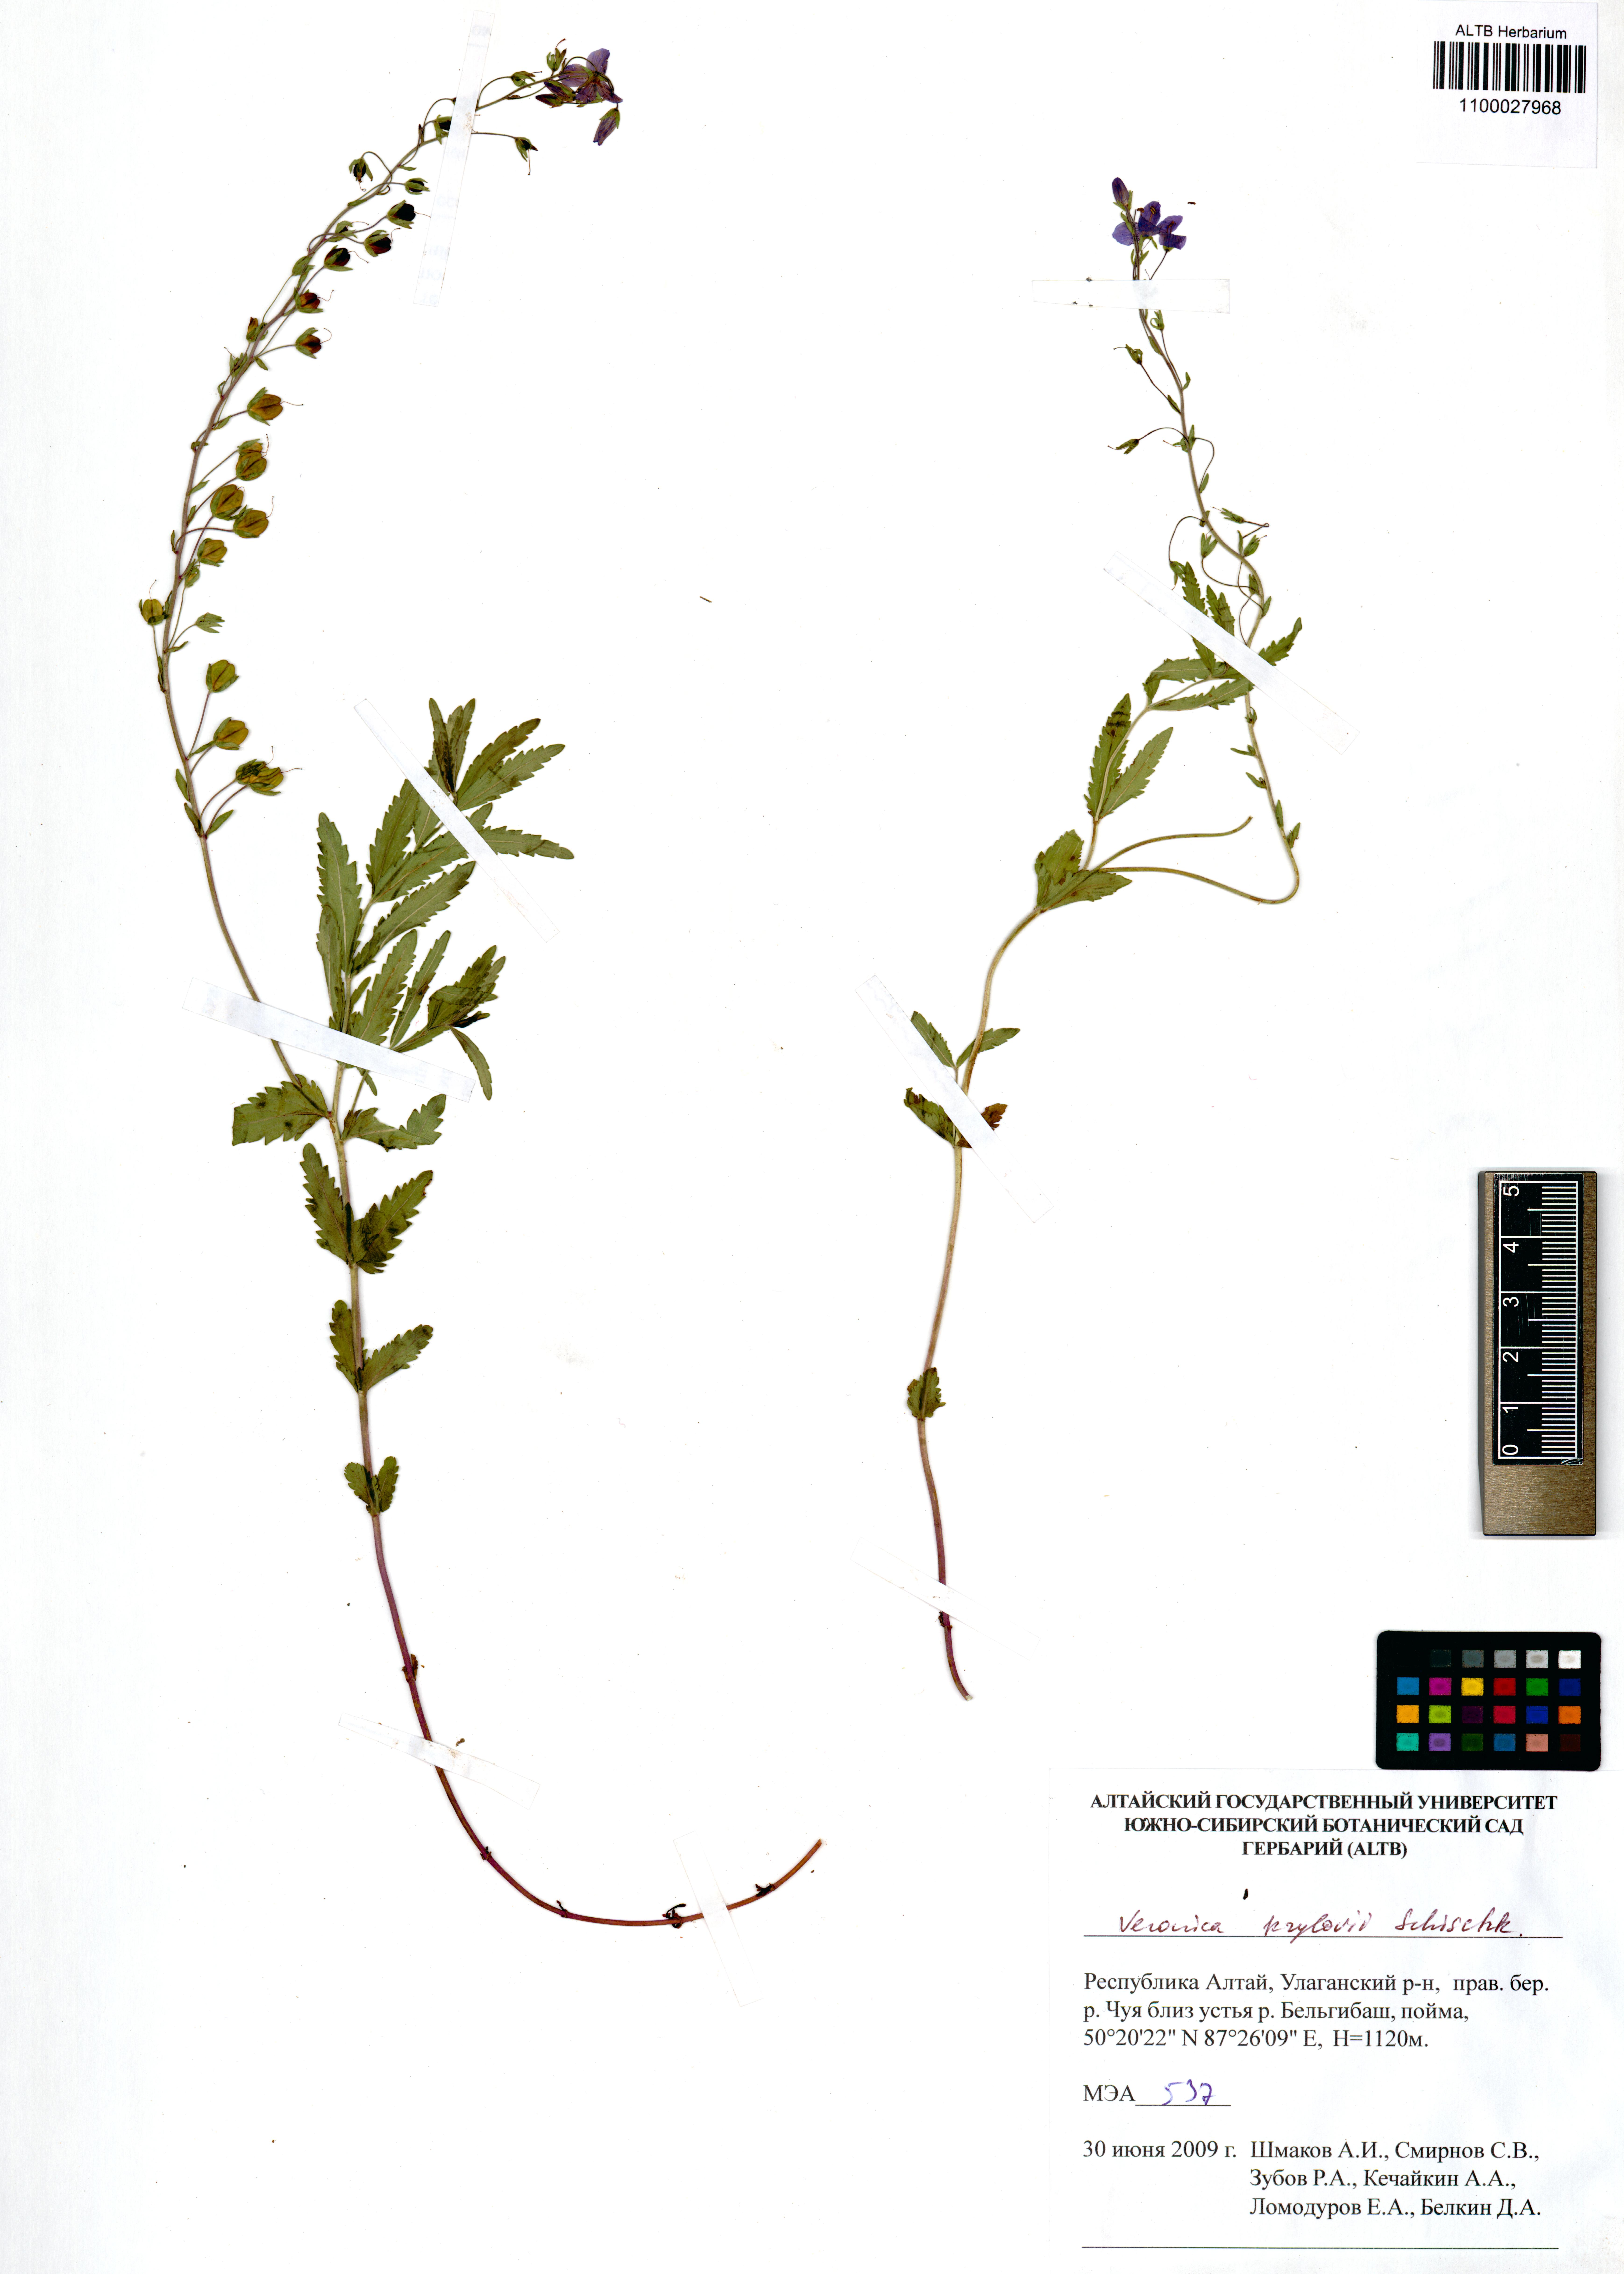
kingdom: Plantae
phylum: Tracheophyta
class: Magnoliopsida
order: Lamiales
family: Plantaginaceae
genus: Veronica
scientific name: Veronica krylovii
